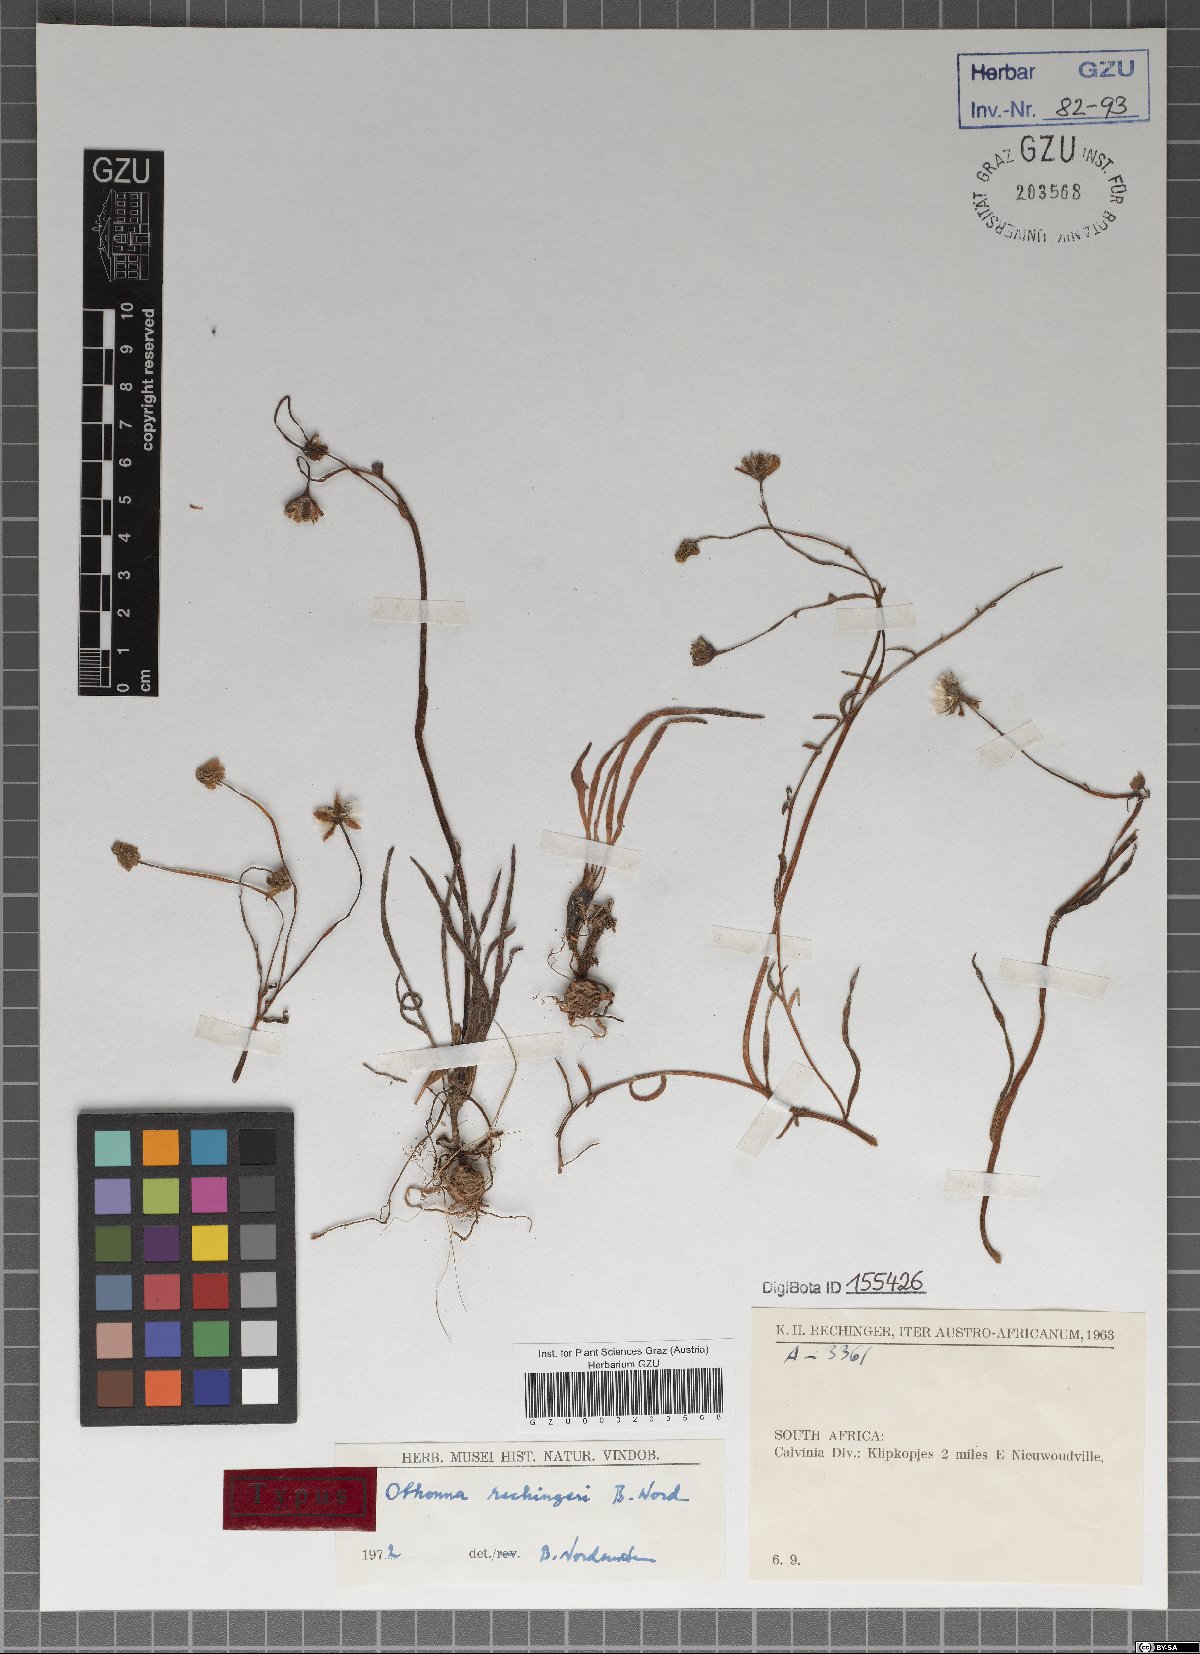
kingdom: Plantae
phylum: Tracheophyta
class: Magnoliopsida
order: Asterales
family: Asteraceae
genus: Crassothonna
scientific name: Crassothonna rechingeri
